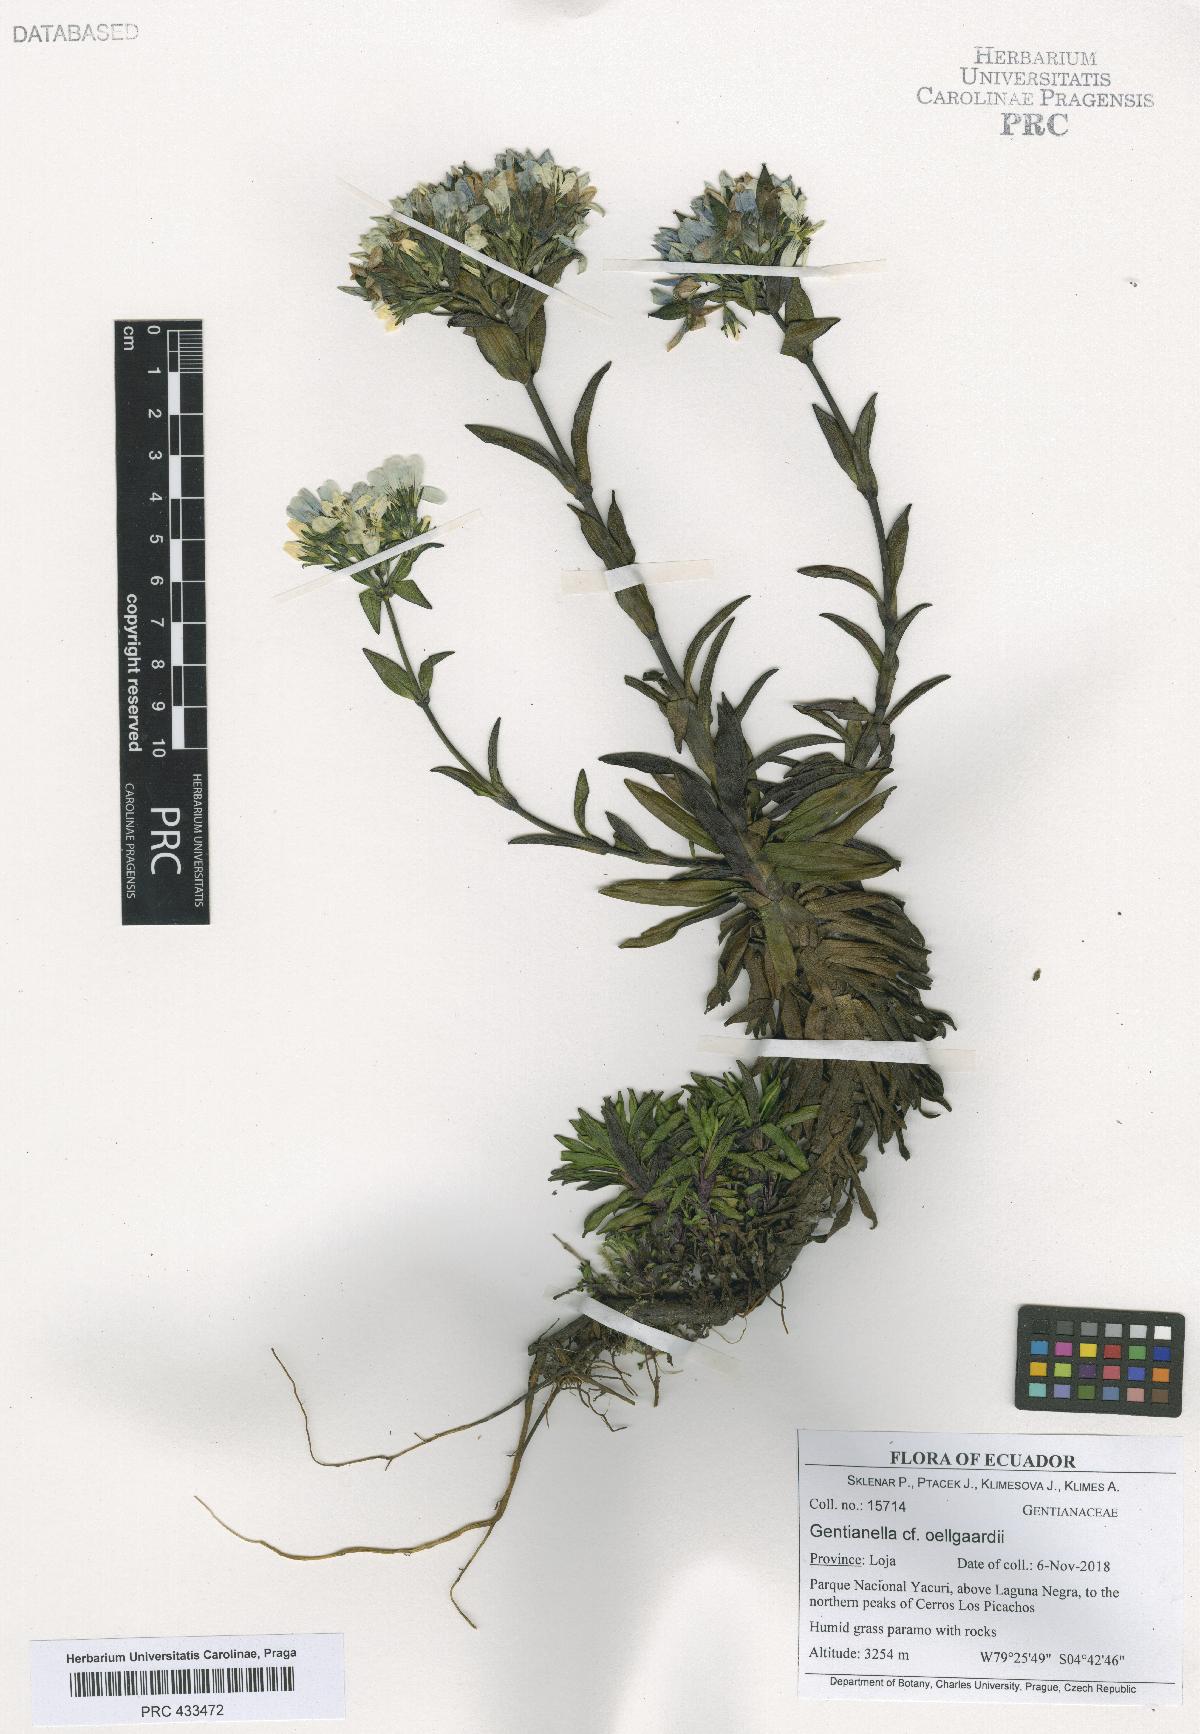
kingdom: Plantae
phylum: Tracheophyta
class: Magnoliopsida
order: Gentianales
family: Gentianaceae
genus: Gentianella
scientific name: Gentianella oellgaardii
